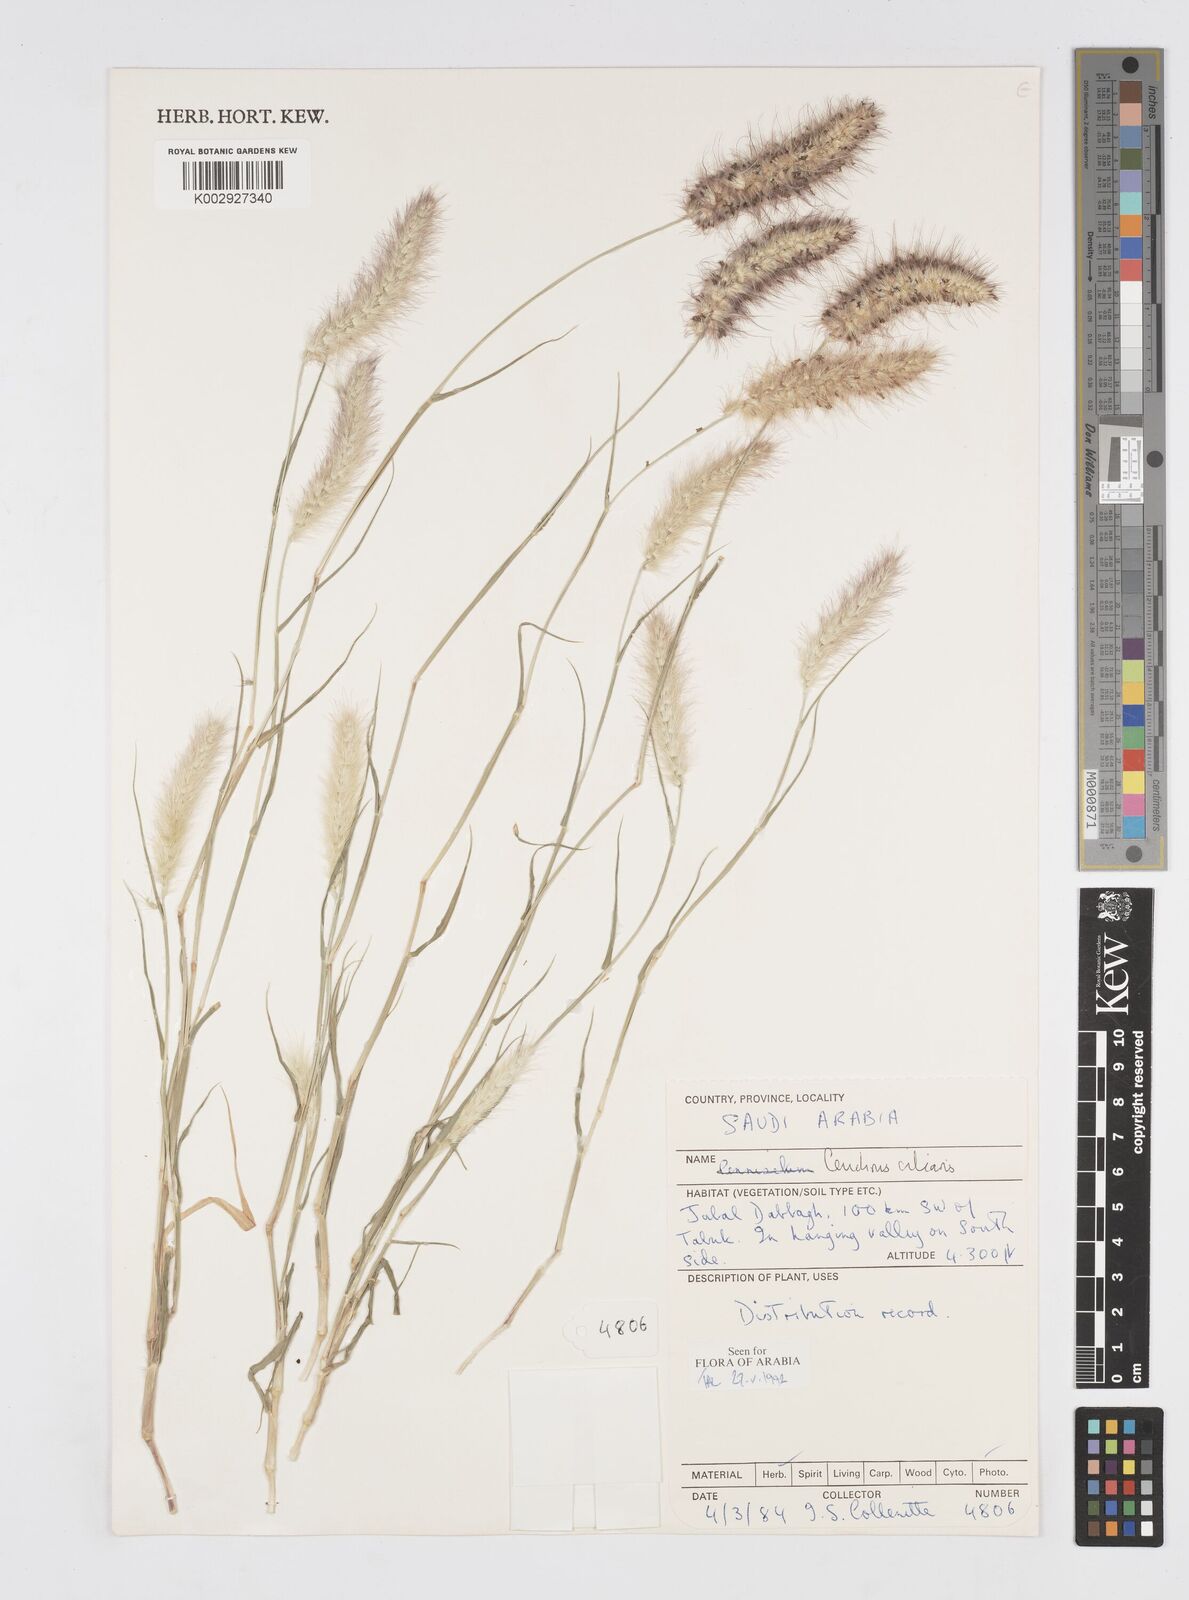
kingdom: Plantae
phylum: Tracheophyta
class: Liliopsida
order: Poales
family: Poaceae
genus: Cenchrus
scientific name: Cenchrus ciliaris
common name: Buffelgrass
